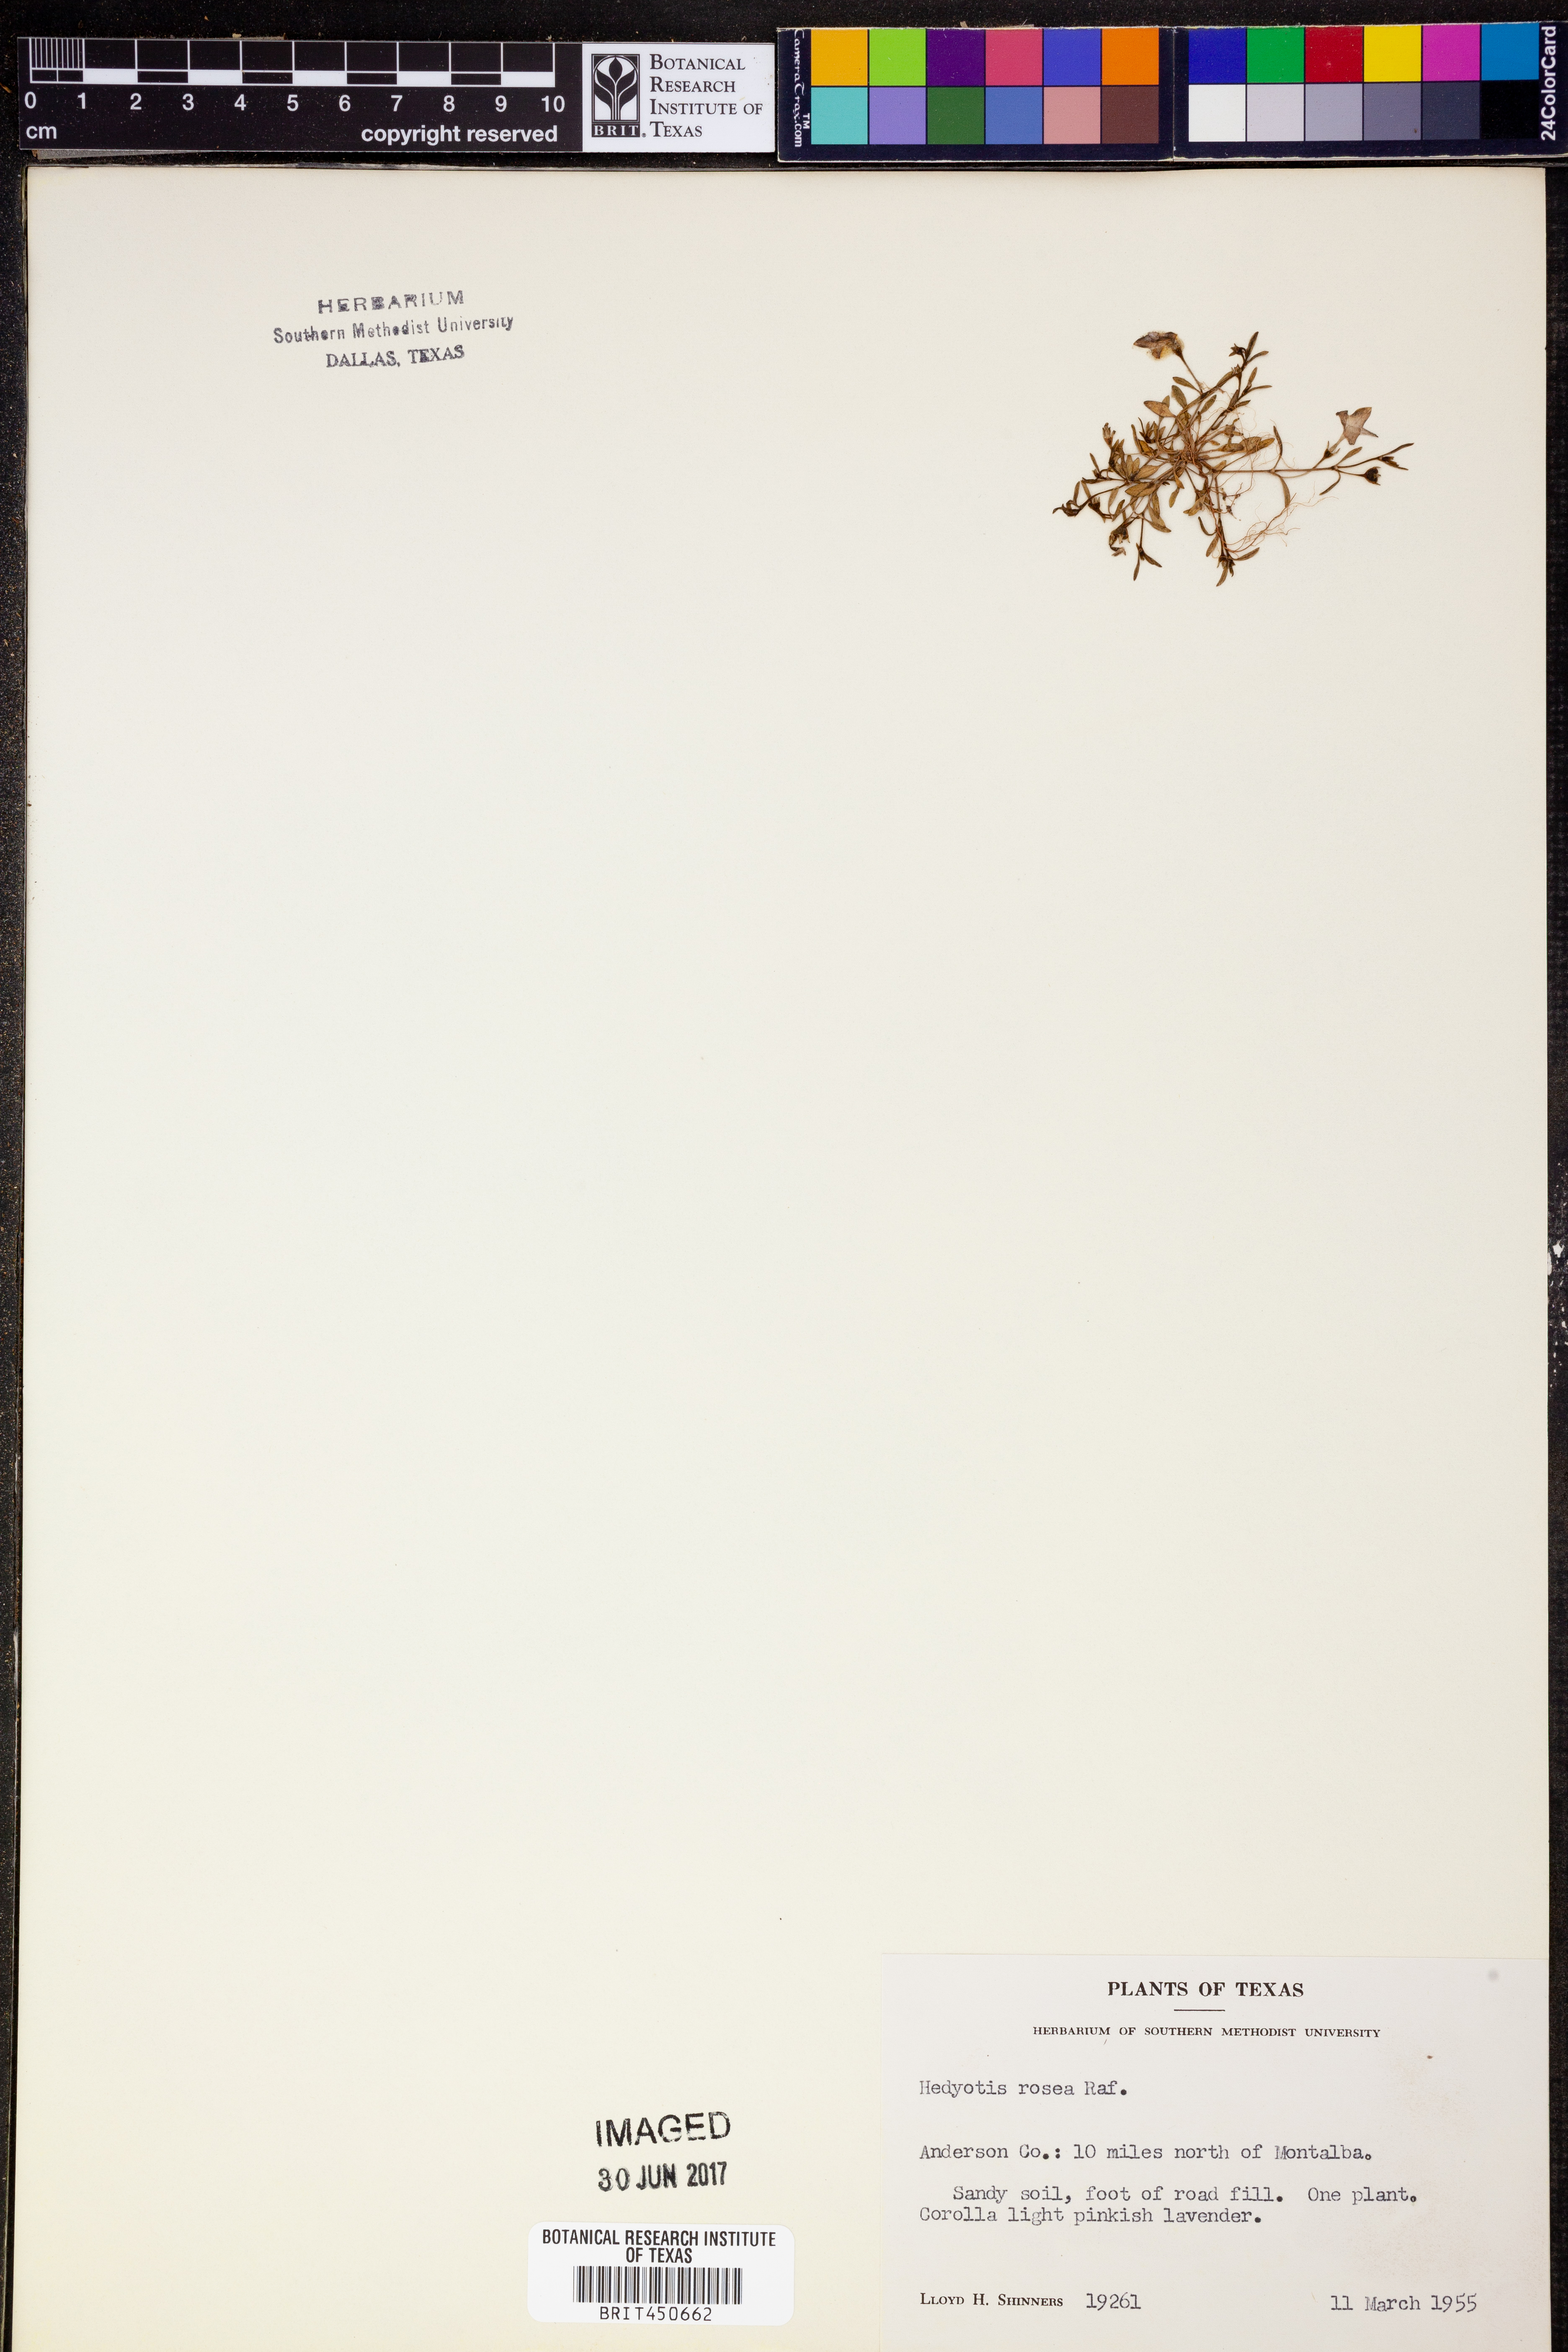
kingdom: Plantae
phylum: Tracheophyta
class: Magnoliopsida
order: Gentianales
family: Rubiaceae
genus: Houstonia
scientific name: Houstonia rosea
